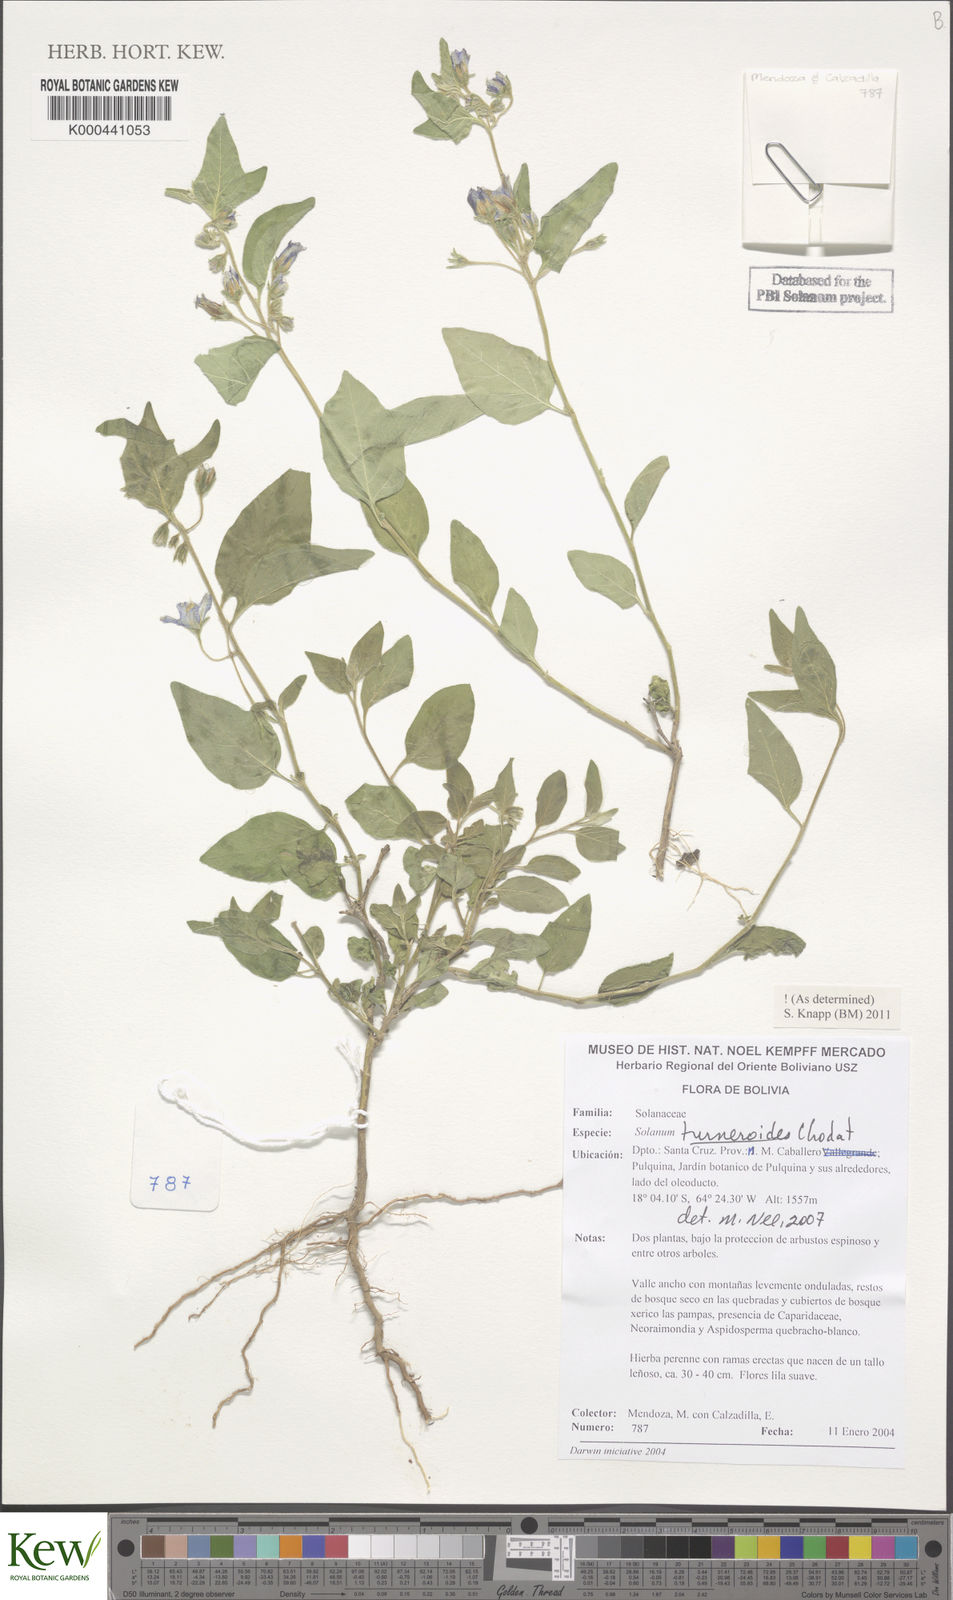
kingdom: Plantae
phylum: Tracheophyta
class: Magnoliopsida
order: Solanales
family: Solanaceae
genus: Solanum
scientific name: Solanum turneroides
